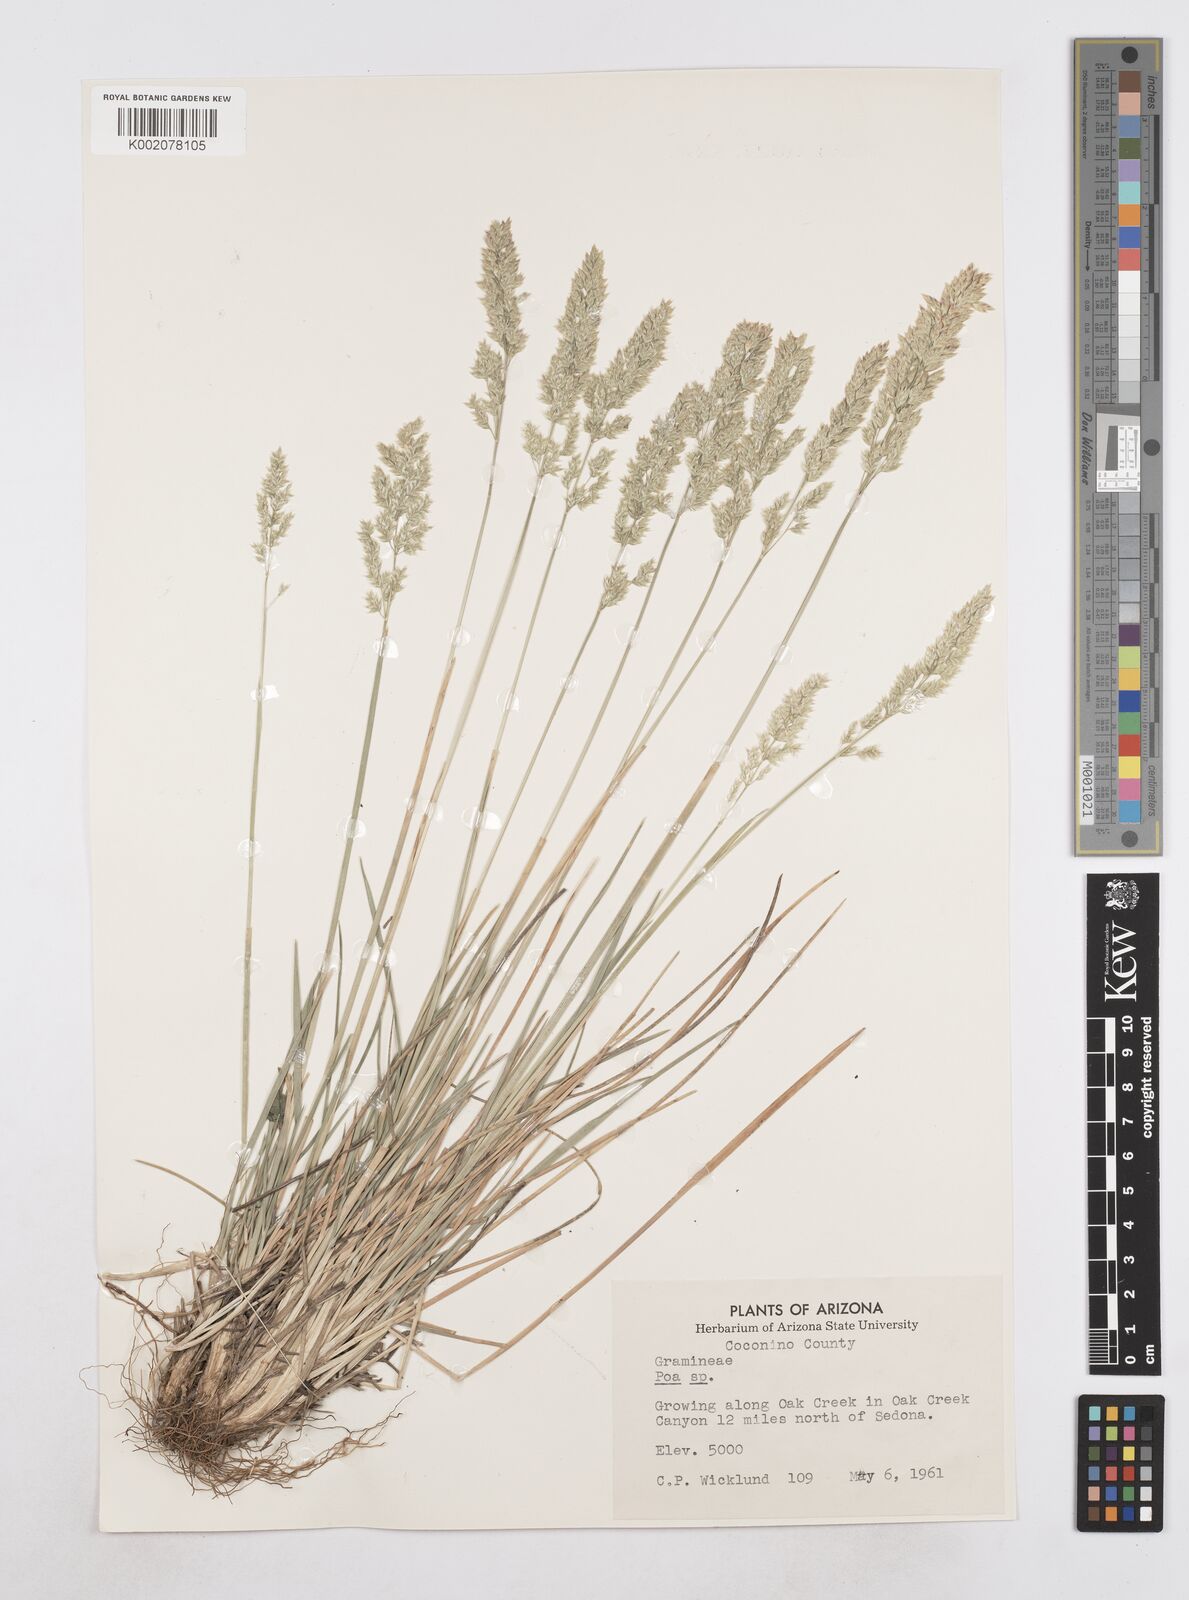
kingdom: Plantae
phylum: Tracheophyta
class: Liliopsida
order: Poales
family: Poaceae
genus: Poa
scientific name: Poa
